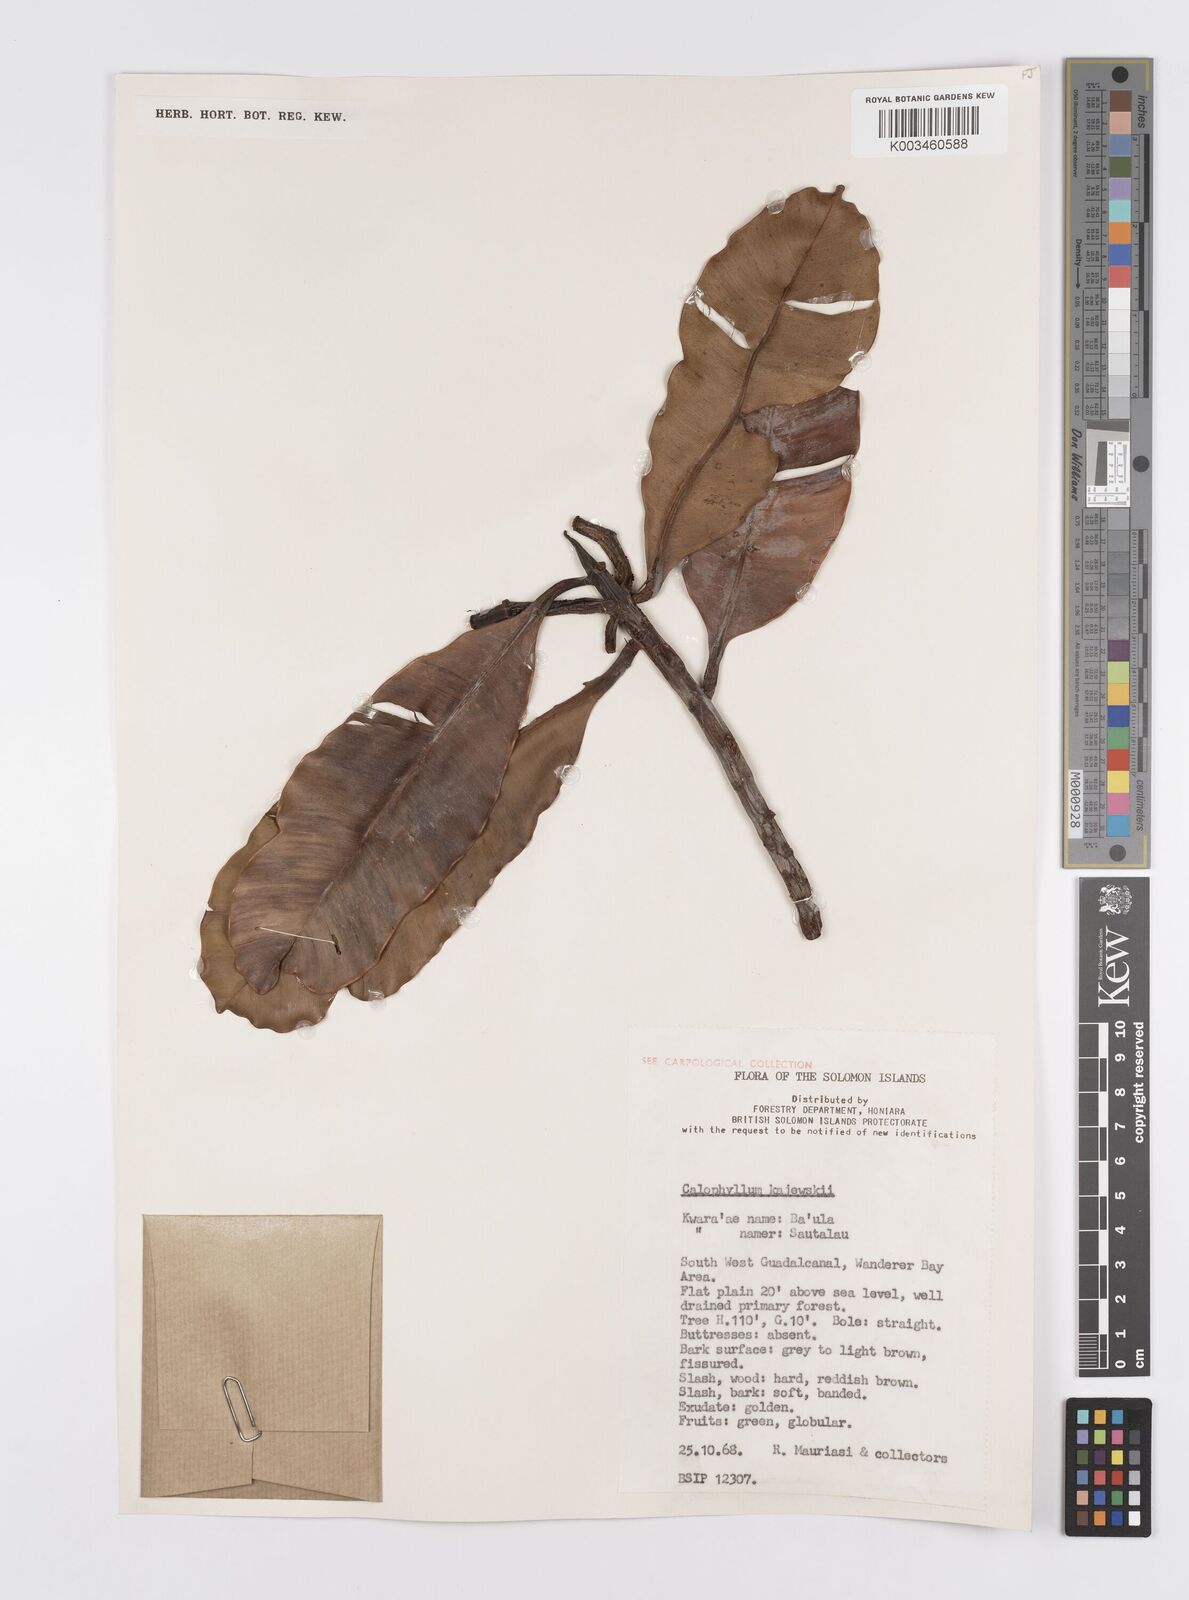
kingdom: Plantae
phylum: Tracheophyta
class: Magnoliopsida
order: Malpighiales
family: Calophyllaceae
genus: Calophyllum
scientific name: Calophyllum peekelii
